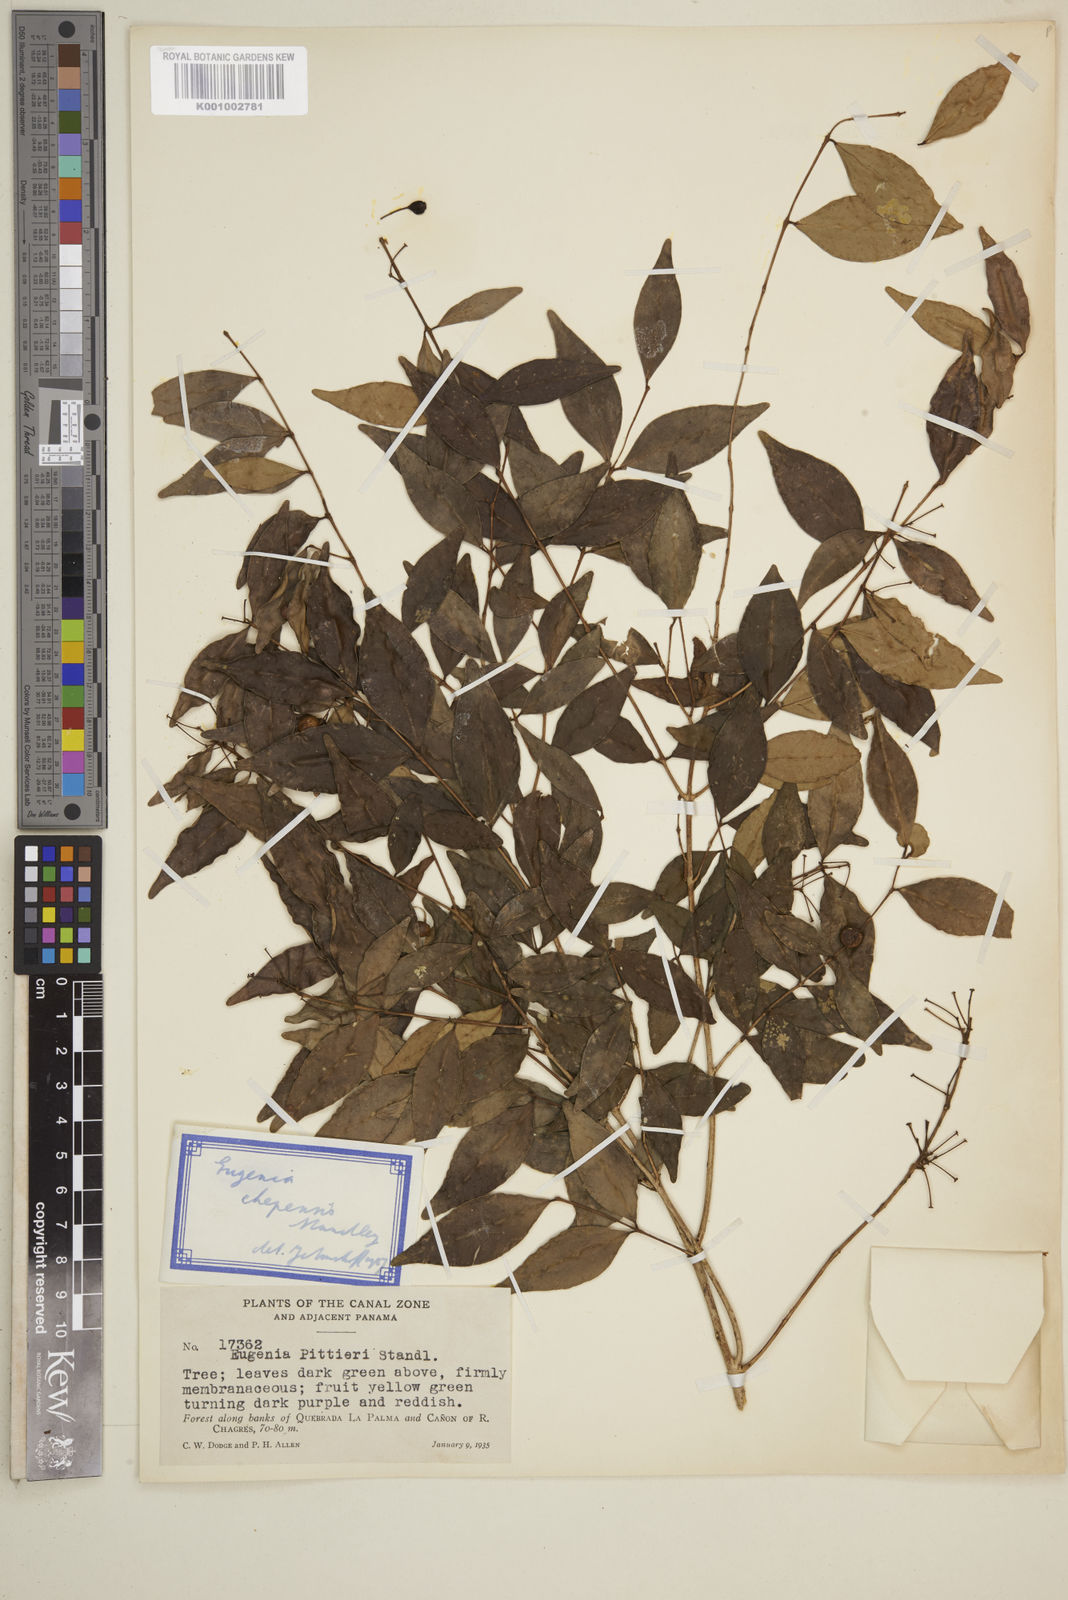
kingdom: Plantae
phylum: Tracheophyta
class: Magnoliopsida
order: Myrtales
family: Myrtaceae
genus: Eugenia
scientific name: Eugenia chepensis
